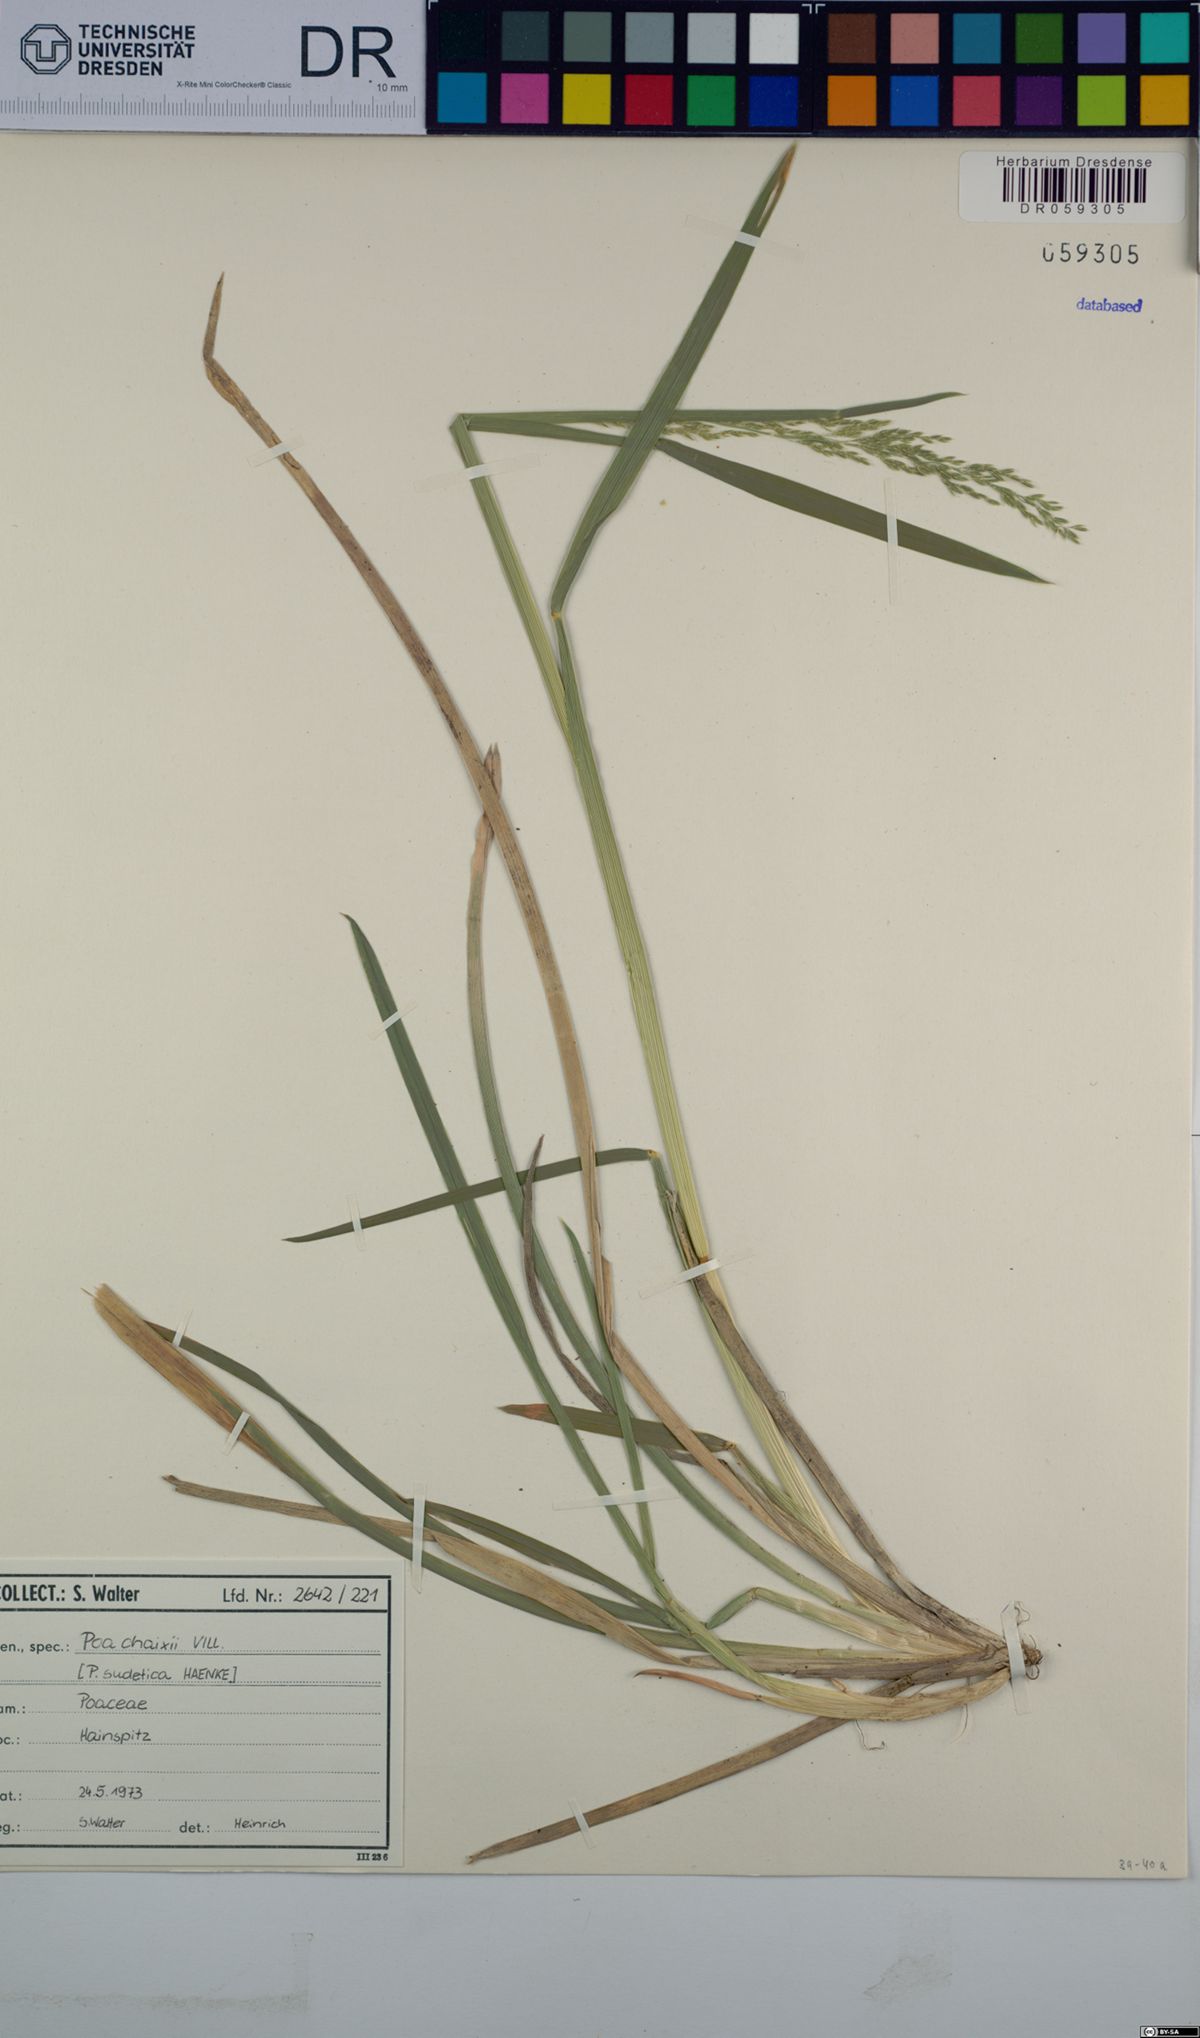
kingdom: Plantae
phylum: Tracheophyta
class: Liliopsida
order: Poales
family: Poaceae
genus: Poa
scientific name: Poa chaixii
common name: Broad-leaved meadow-grass
